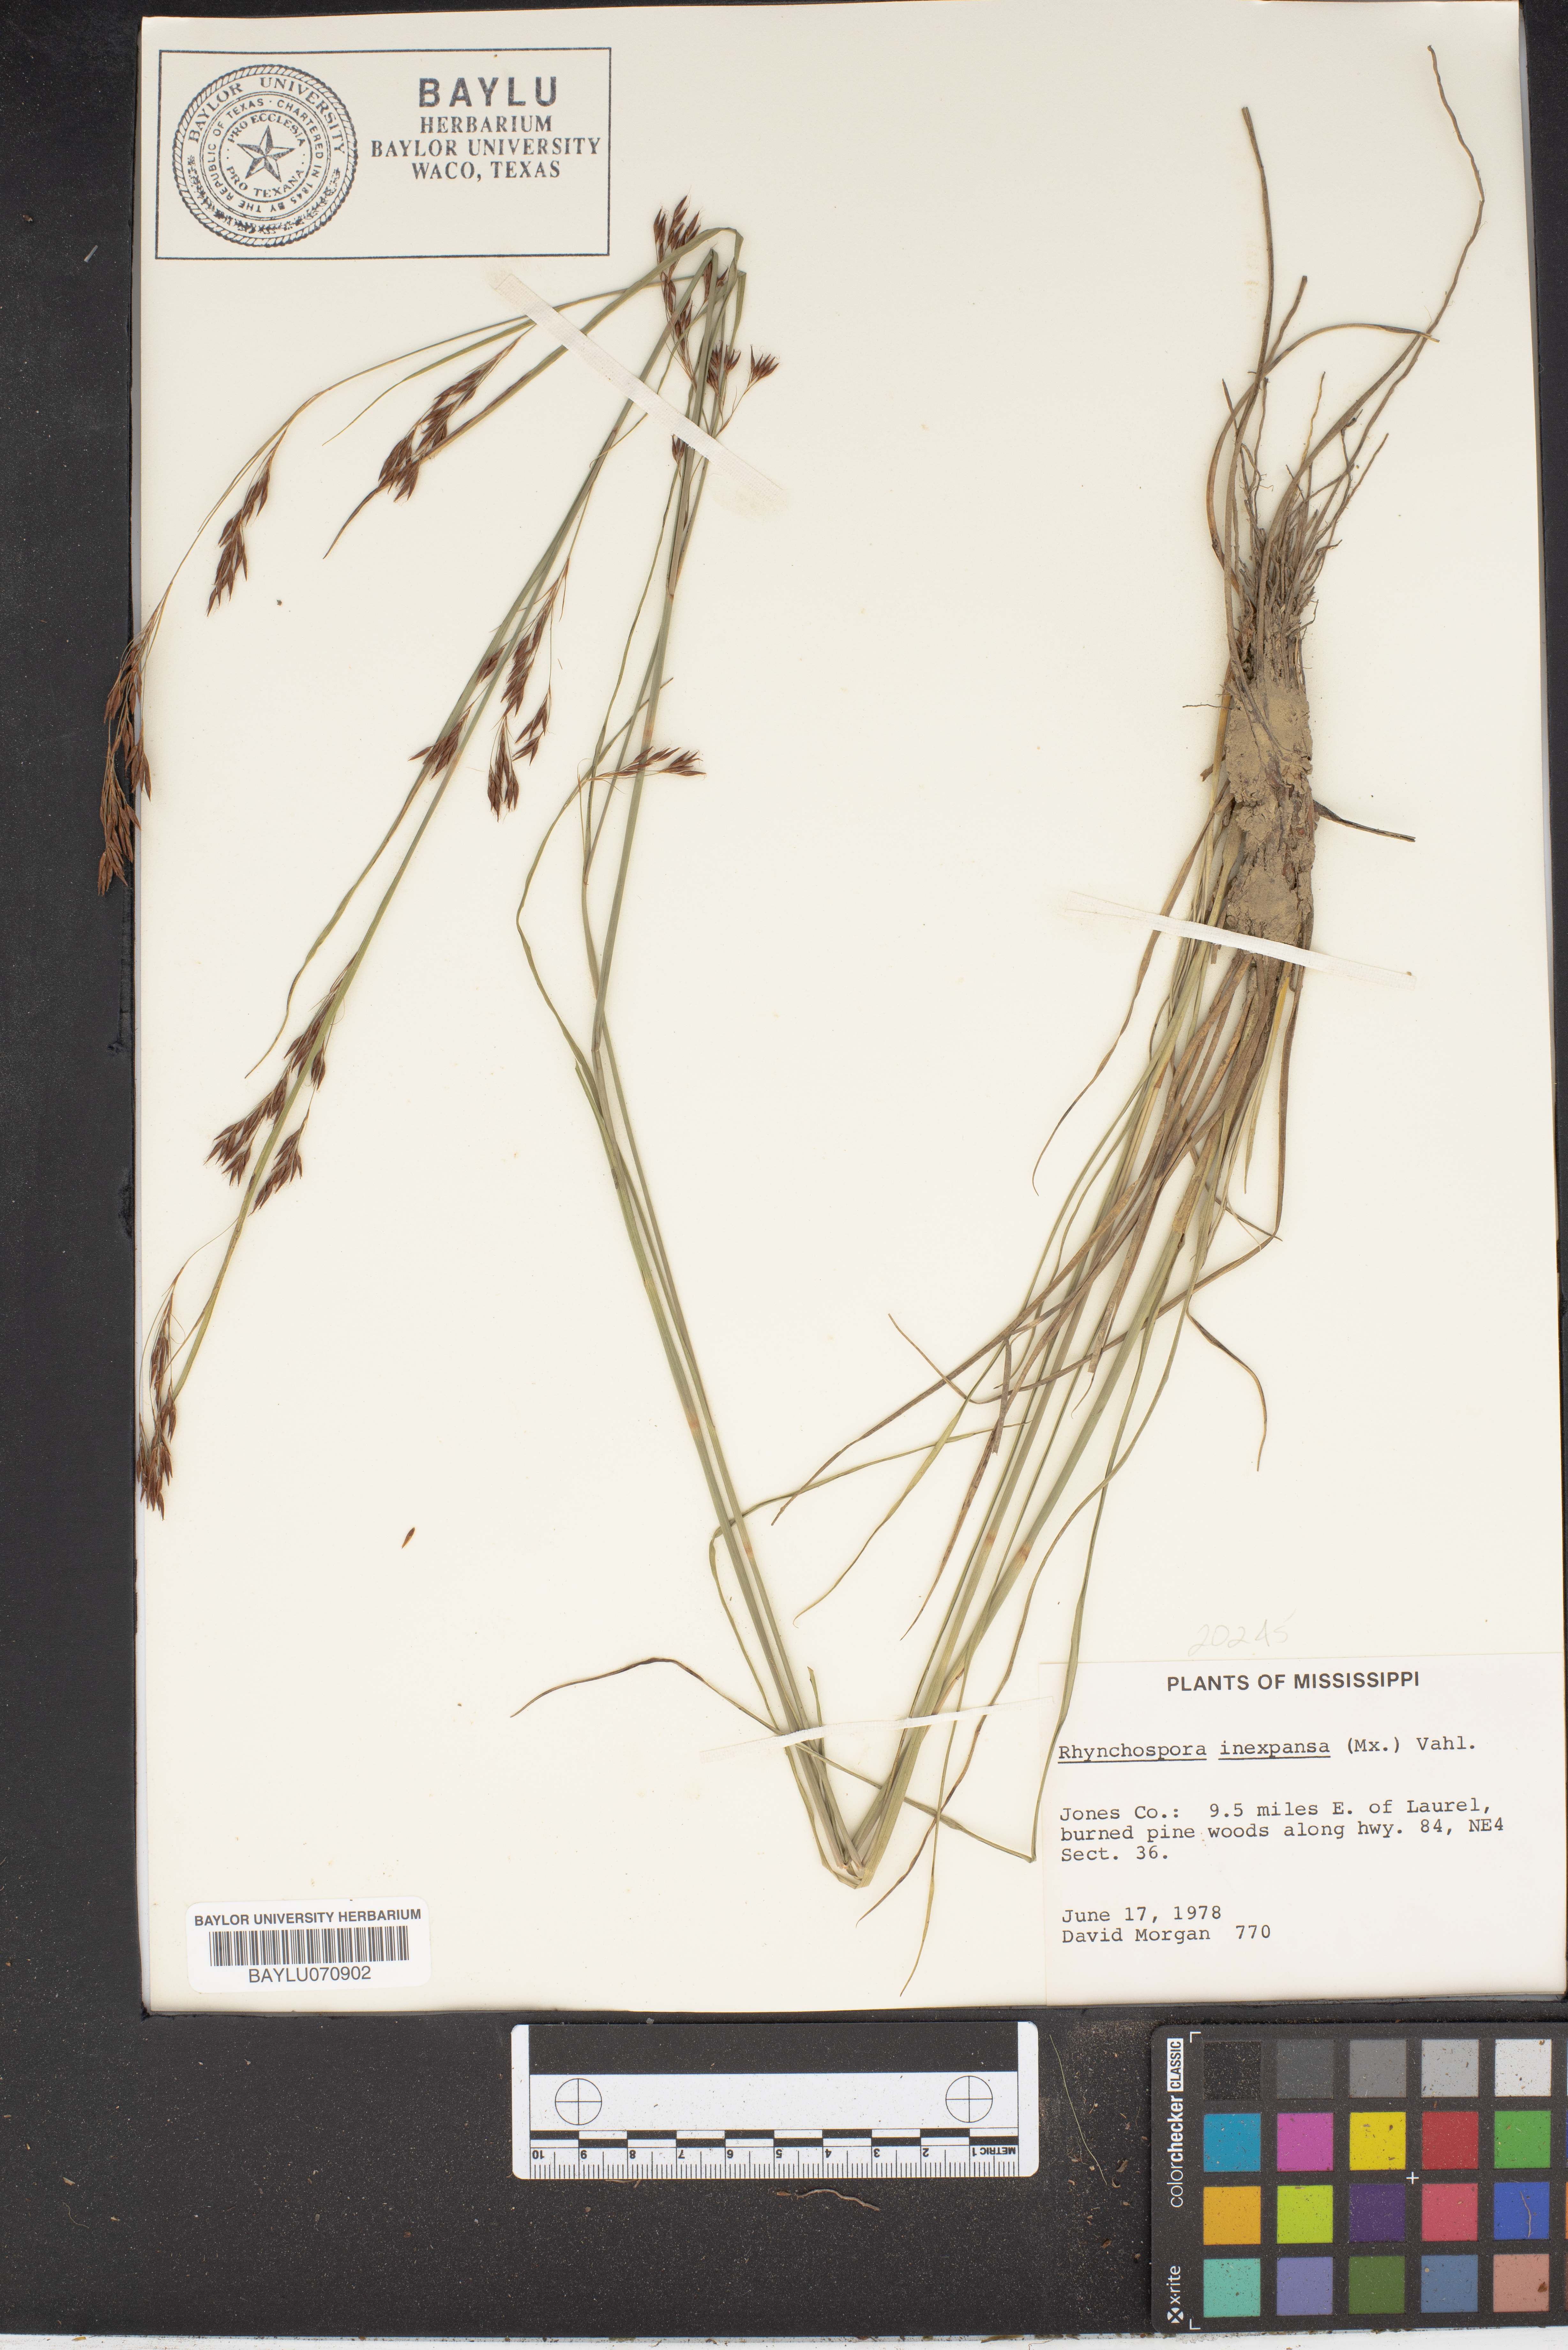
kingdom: Plantae
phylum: Tracheophyta
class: Liliopsida
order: Poales
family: Cyperaceae
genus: Rhynchospora
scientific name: Rhynchospora inexpansa
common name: Nodding beaksedge
